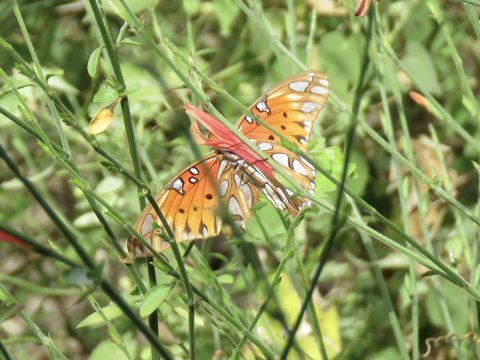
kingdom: Animalia
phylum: Arthropoda
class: Insecta
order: Lepidoptera
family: Nymphalidae
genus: Dione
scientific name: Dione vanillae
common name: Gulf Fritillary
